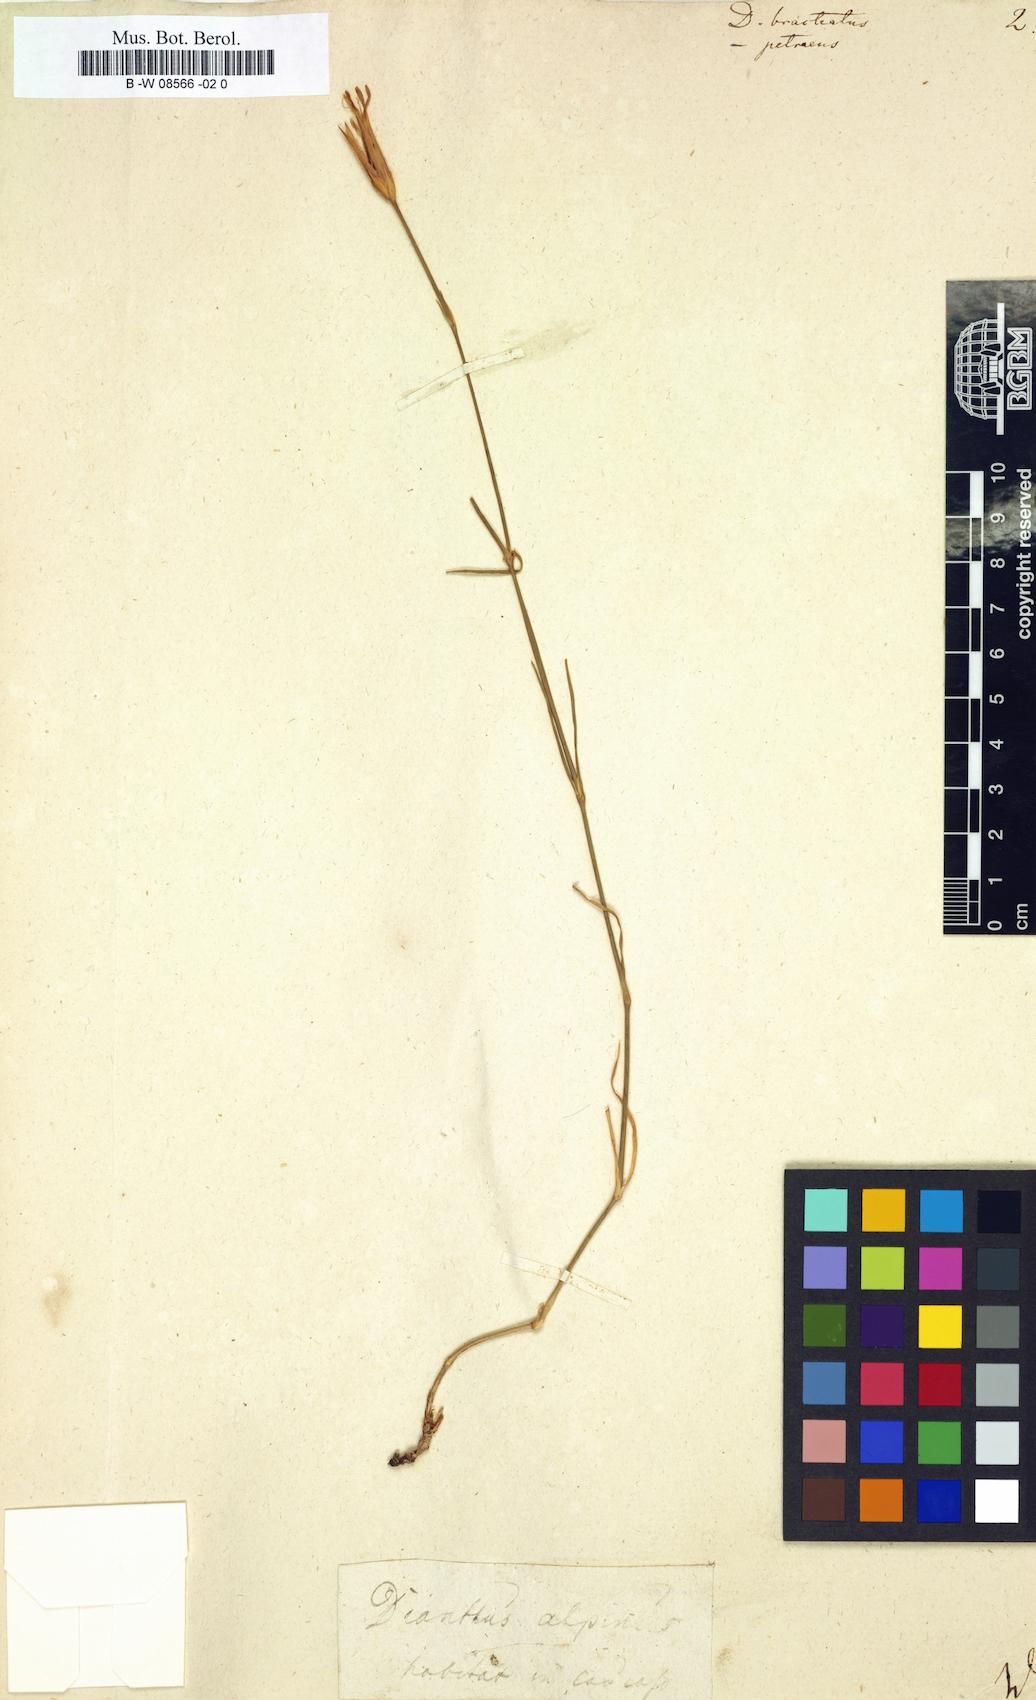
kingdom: Plantae
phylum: Tracheophyta
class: Magnoliopsida
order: Caryophyllales
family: Caryophyllaceae
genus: Dianthus
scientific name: Dianthus cretaceus
